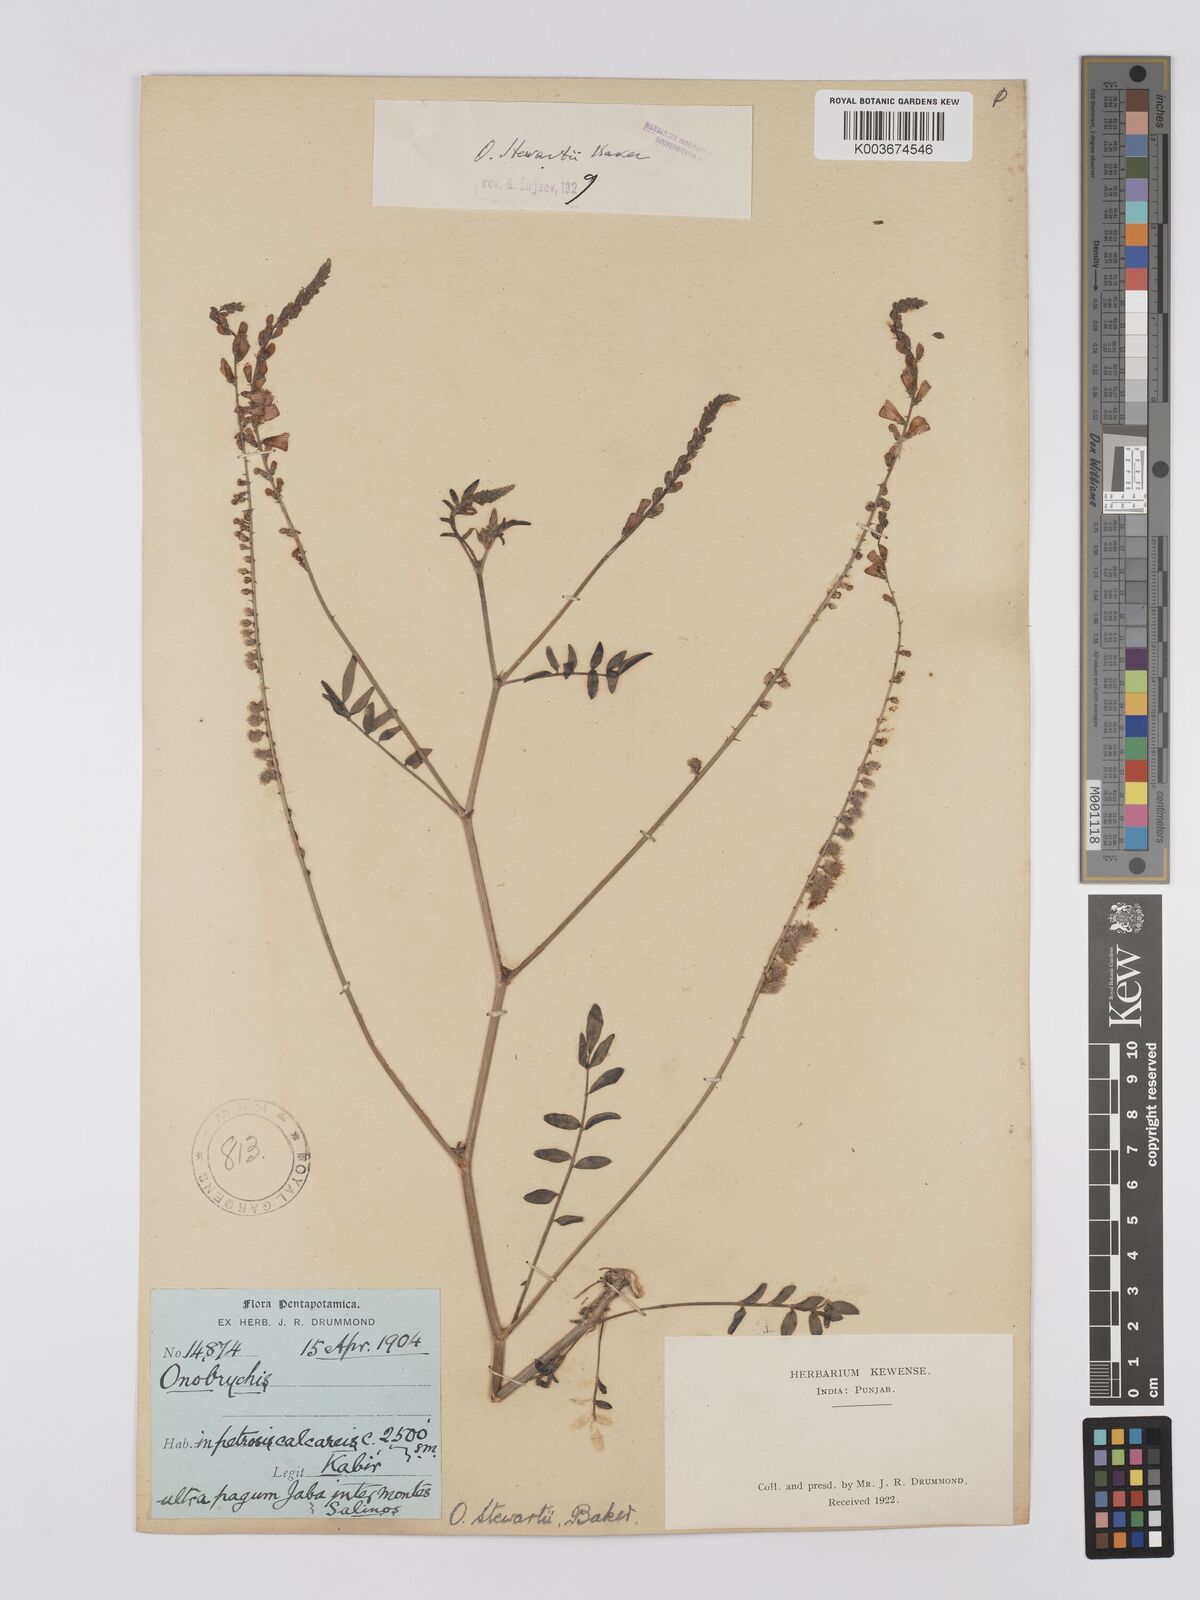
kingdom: Plantae
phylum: Tracheophyta
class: Magnoliopsida
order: Fabales
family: Fabaceae
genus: Onobrychis
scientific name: Onobrychis stewartii
